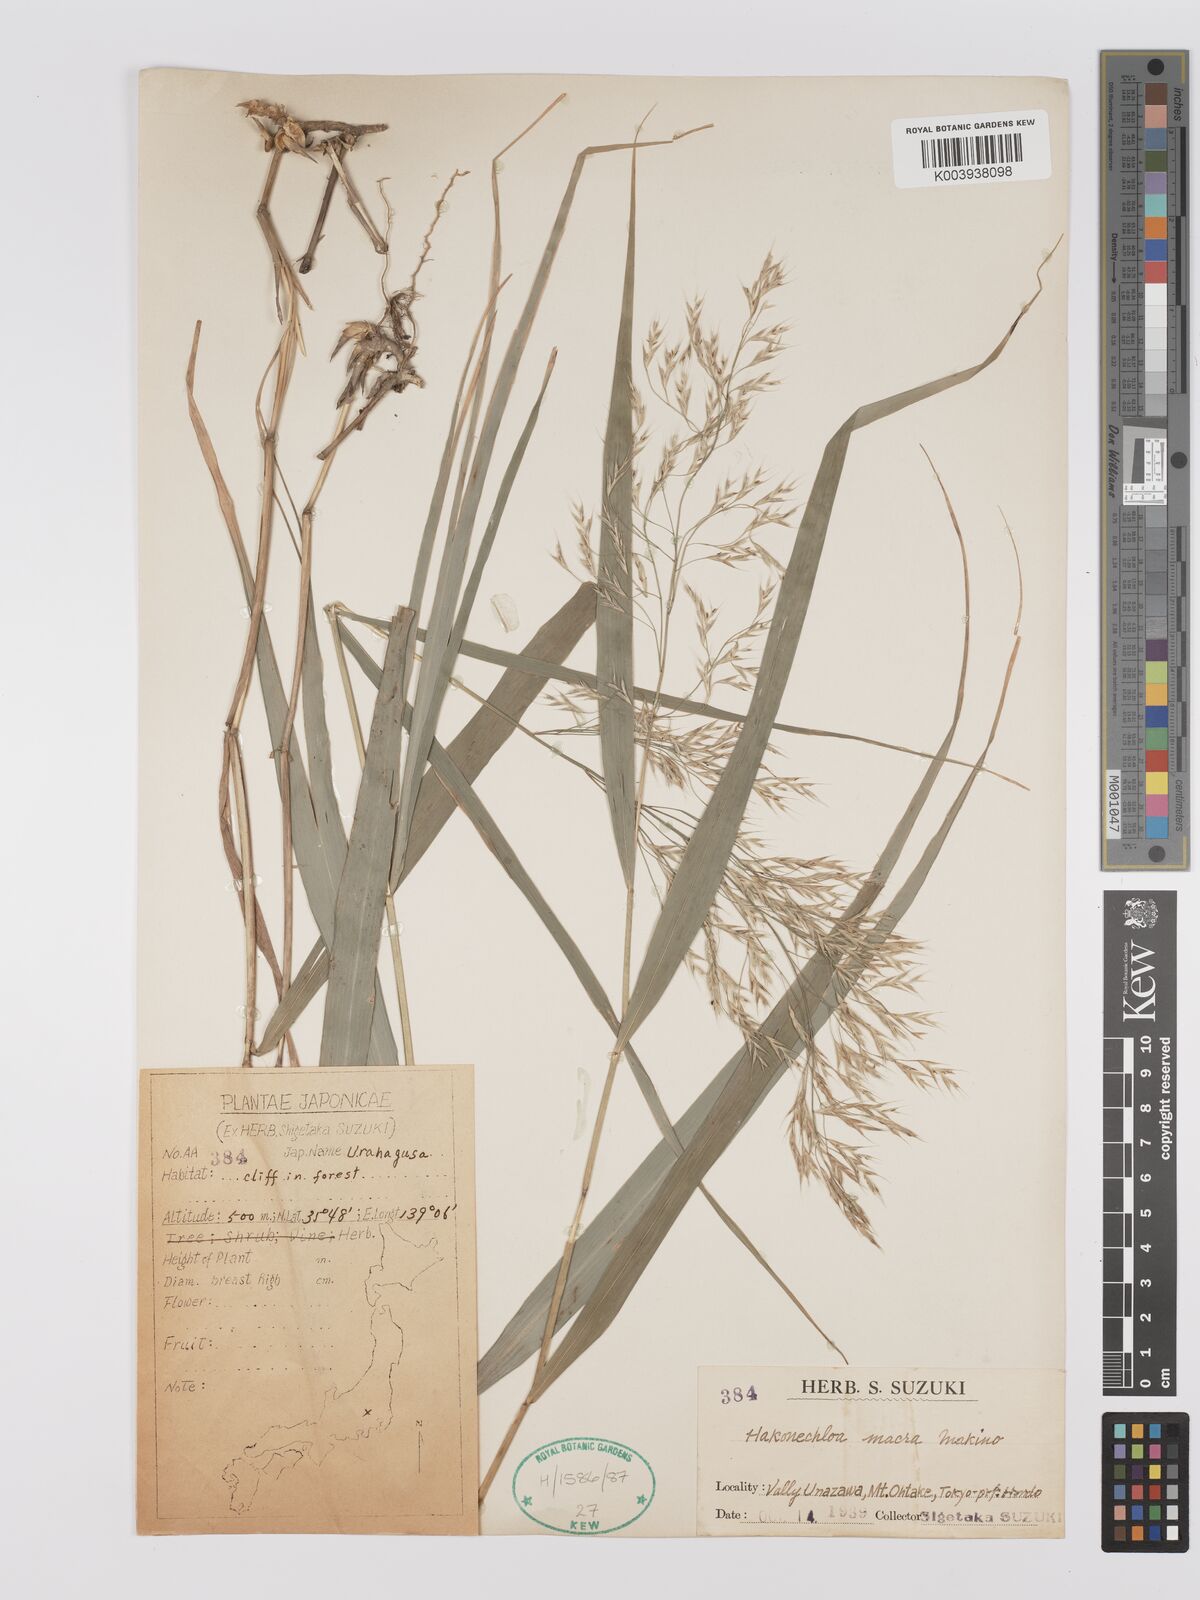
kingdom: Plantae
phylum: Tracheophyta
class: Liliopsida
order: Poales
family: Poaceae
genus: Hakonechloa
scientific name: Hakonechloa macra
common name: Hakone grass
